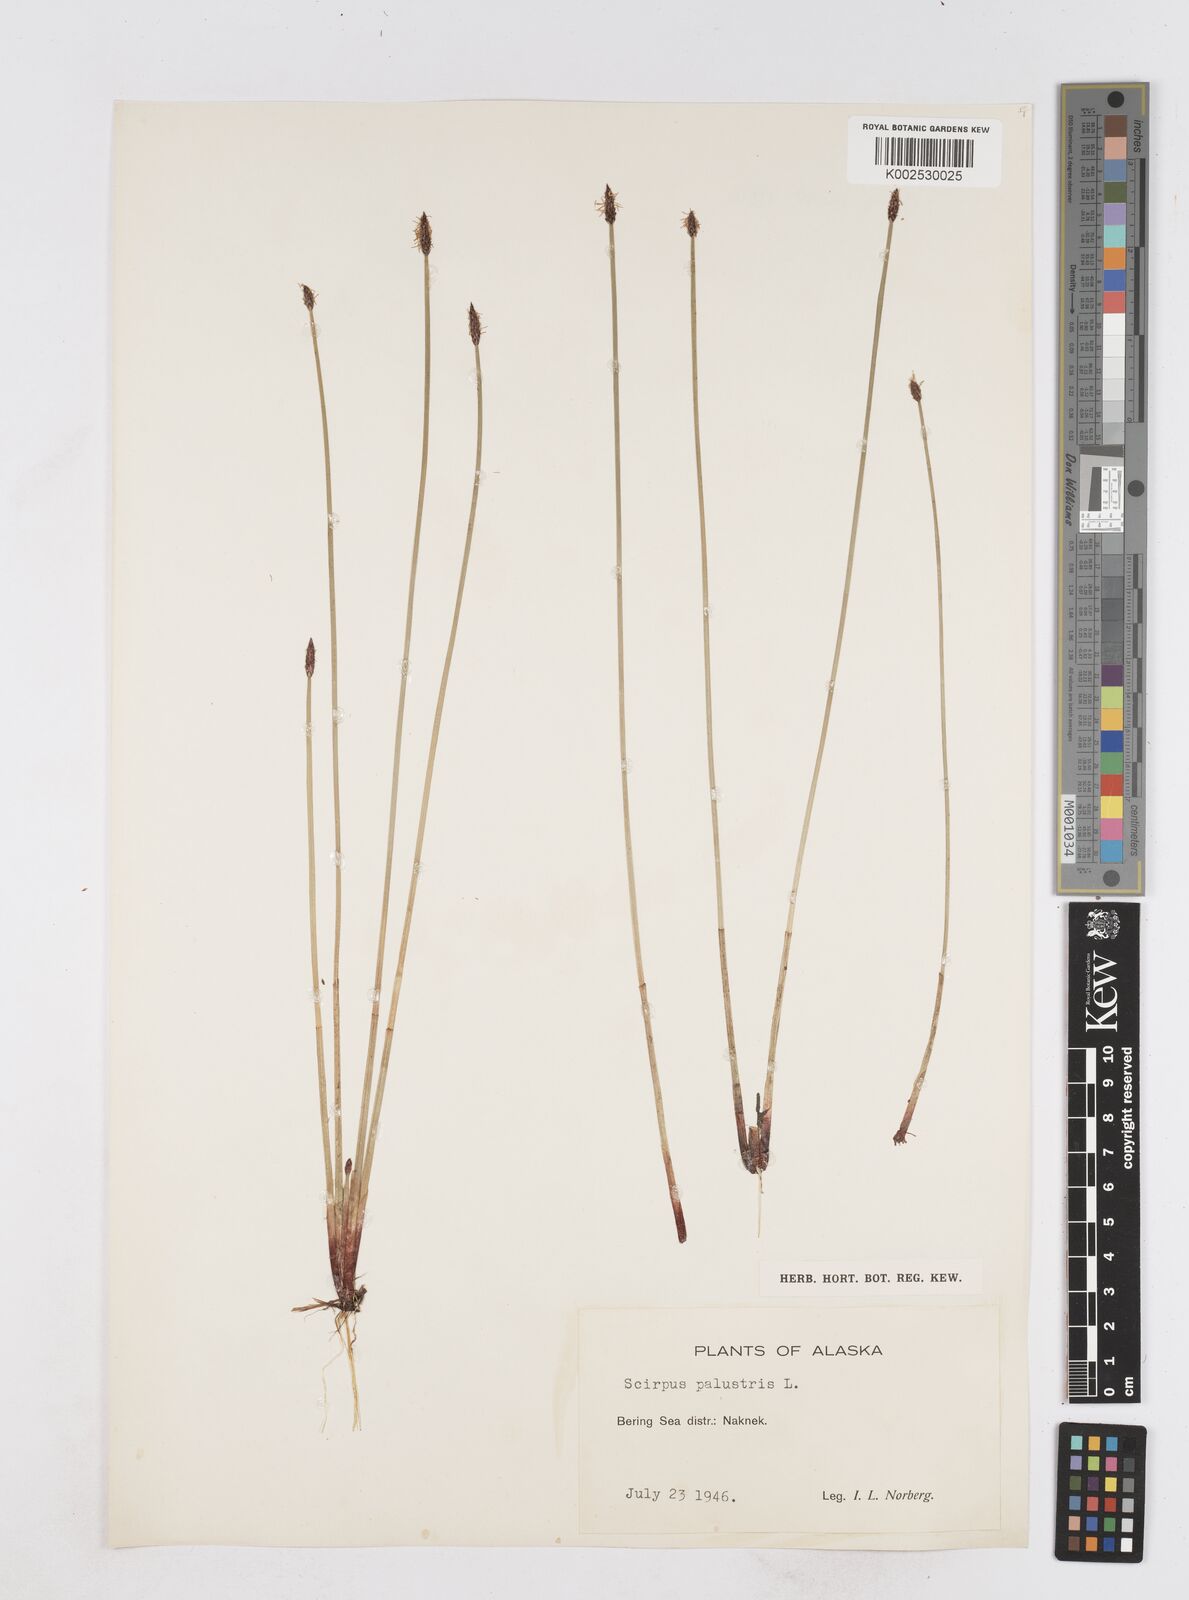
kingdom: Plantae
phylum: Tracheophyta
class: Liliopsida
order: Poales
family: Cyperaceae
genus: Eleocharis
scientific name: Eleocharis palustris
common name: Common spike-rush
